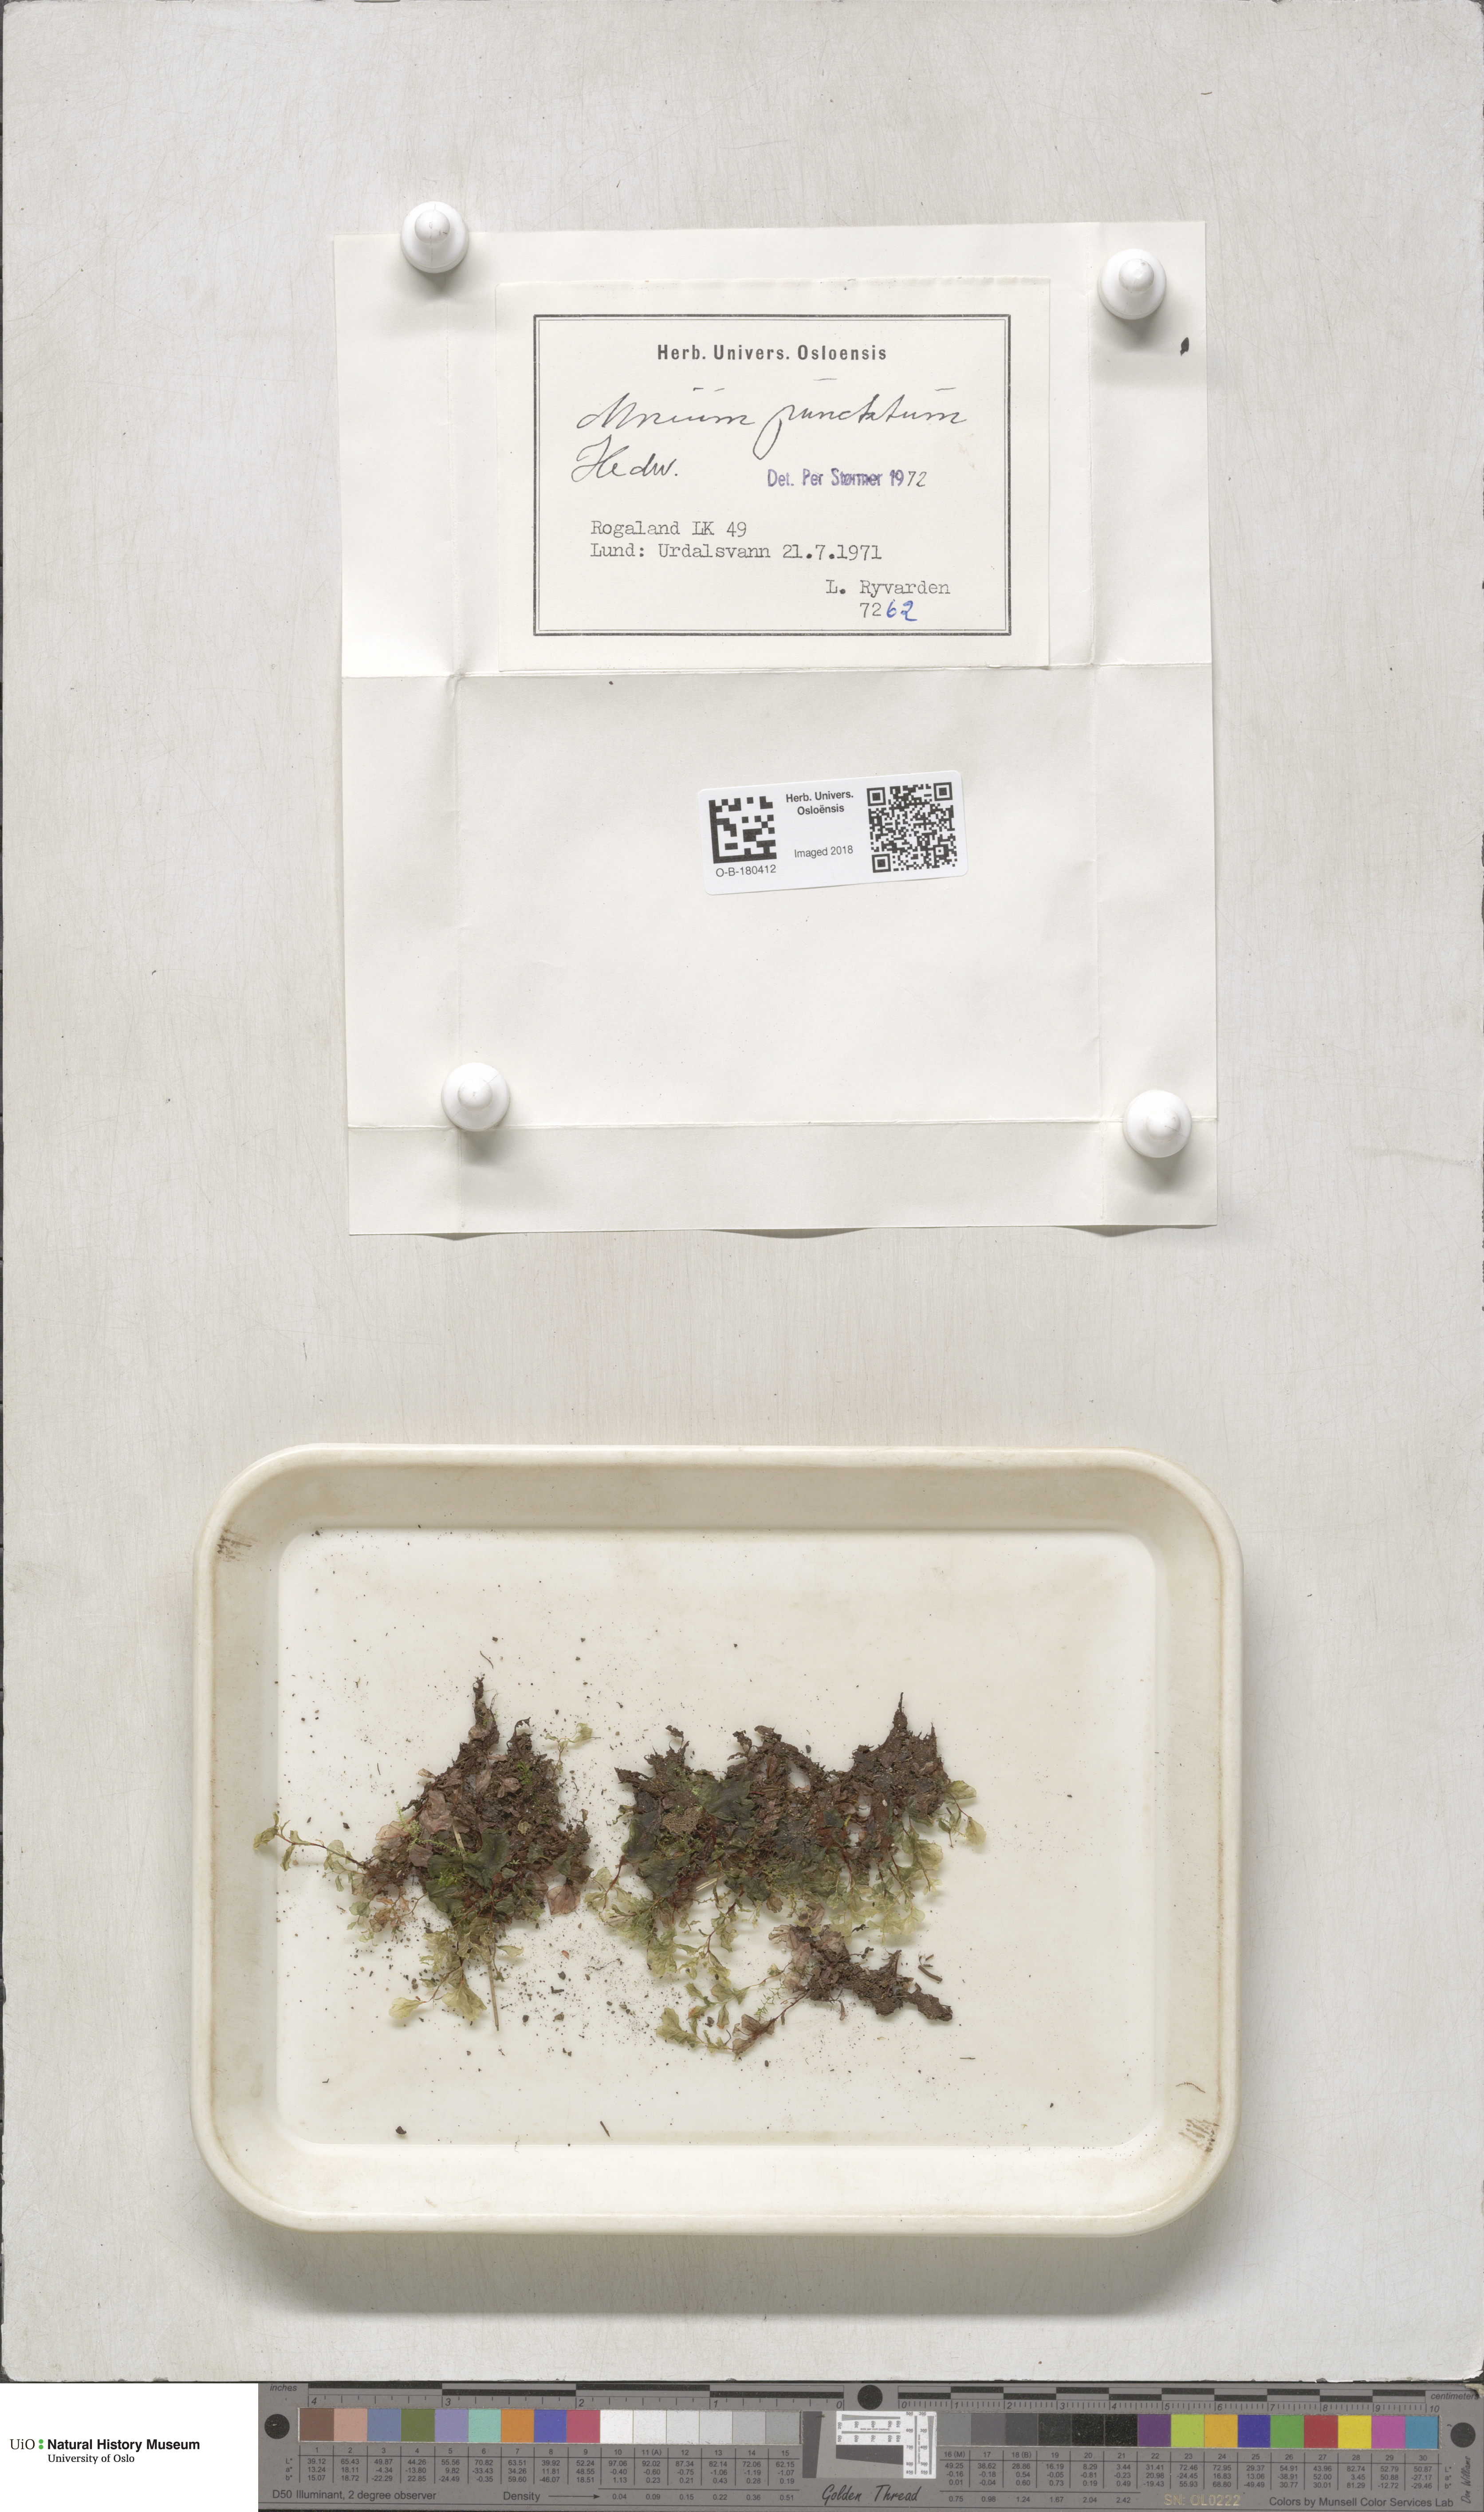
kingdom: Plantae
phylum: Bryophyta
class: Bryopsida
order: Bryales
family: Mniaceae
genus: Rhizomnium
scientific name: Rhizomnium punctatum
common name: Dotted leafy moss
